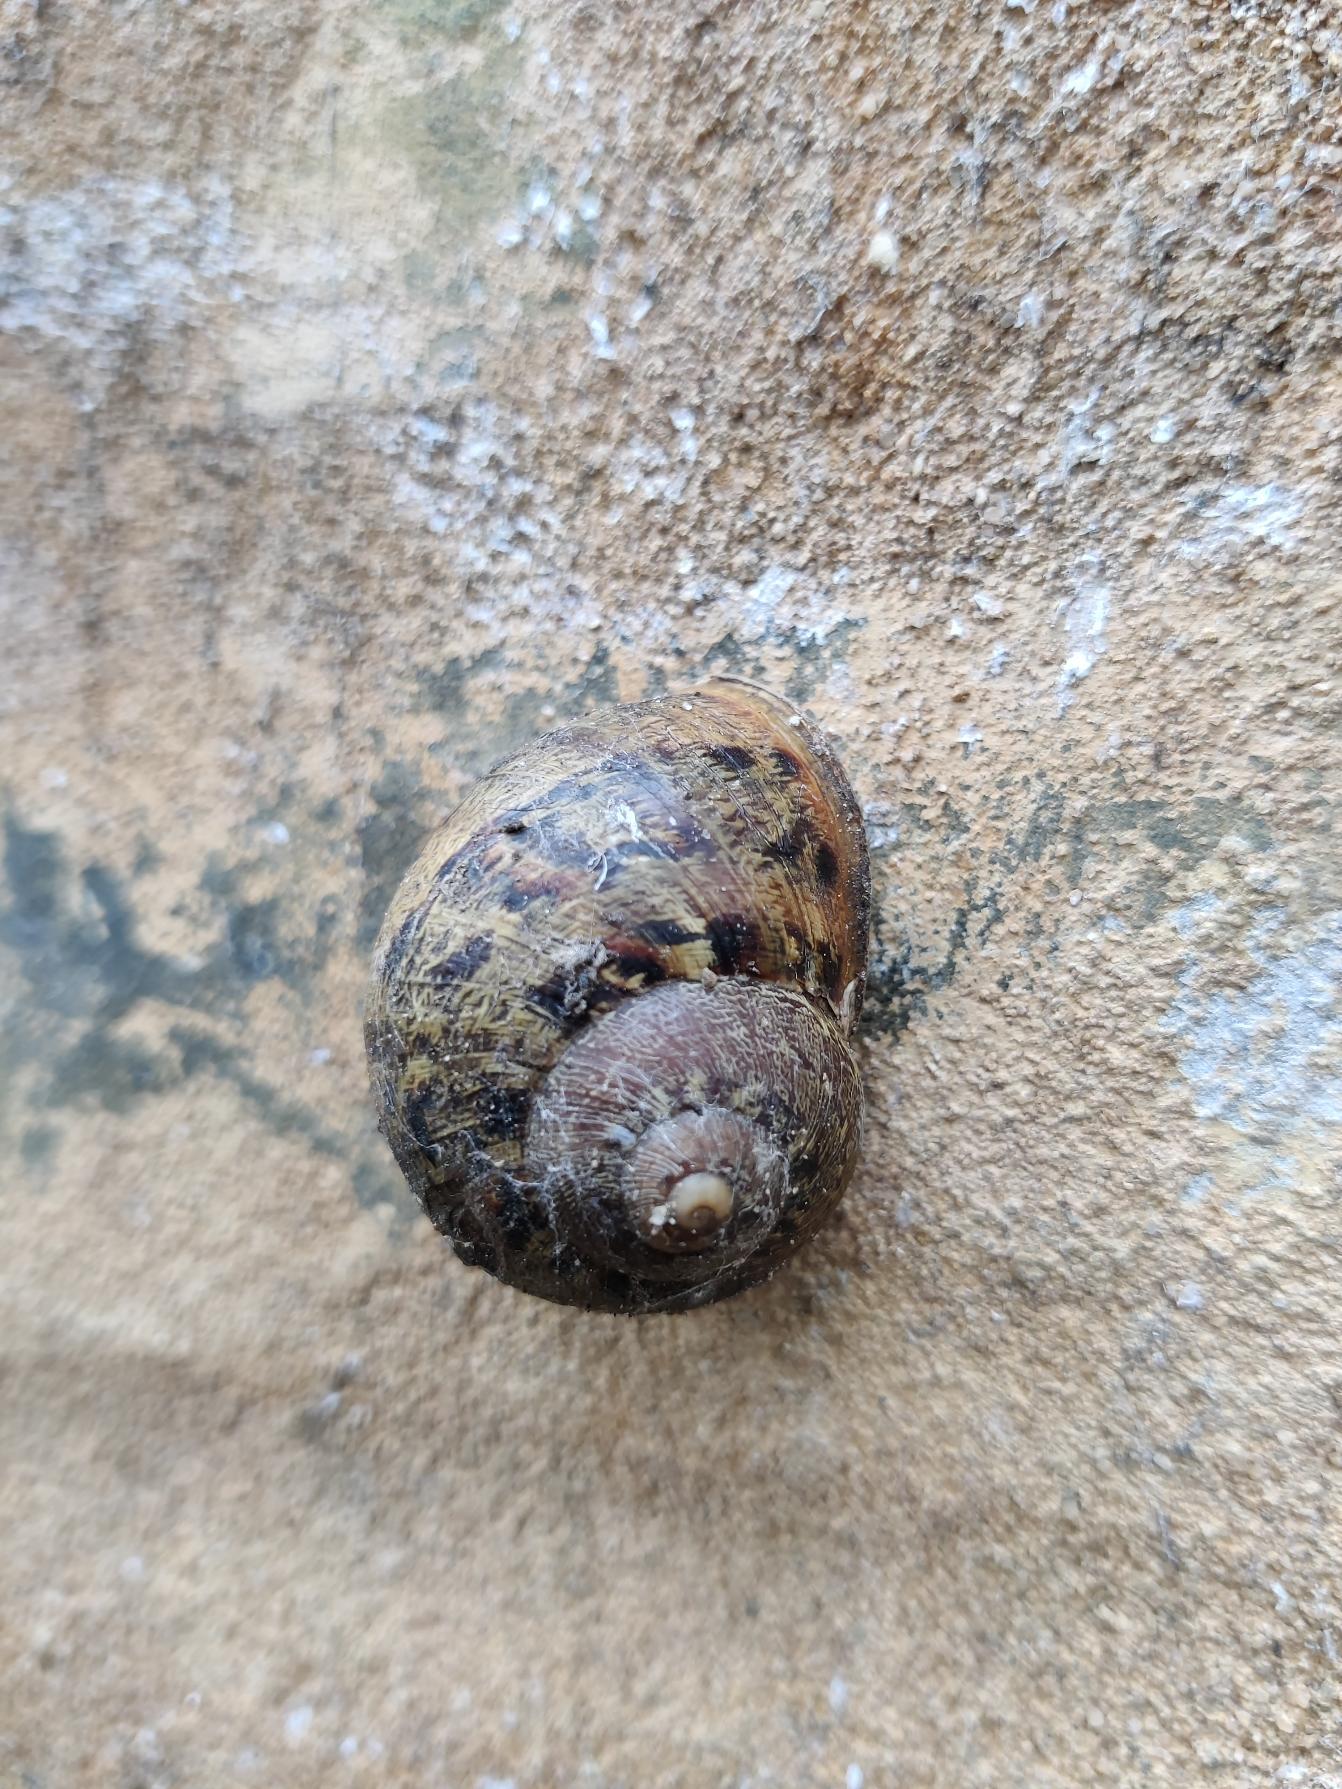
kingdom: Animalia
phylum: Mollusca
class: Gastropoda
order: Stylommatophora
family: Helicidae
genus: Cornu
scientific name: Cornu aspersum
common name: Plettet voldsnegl
